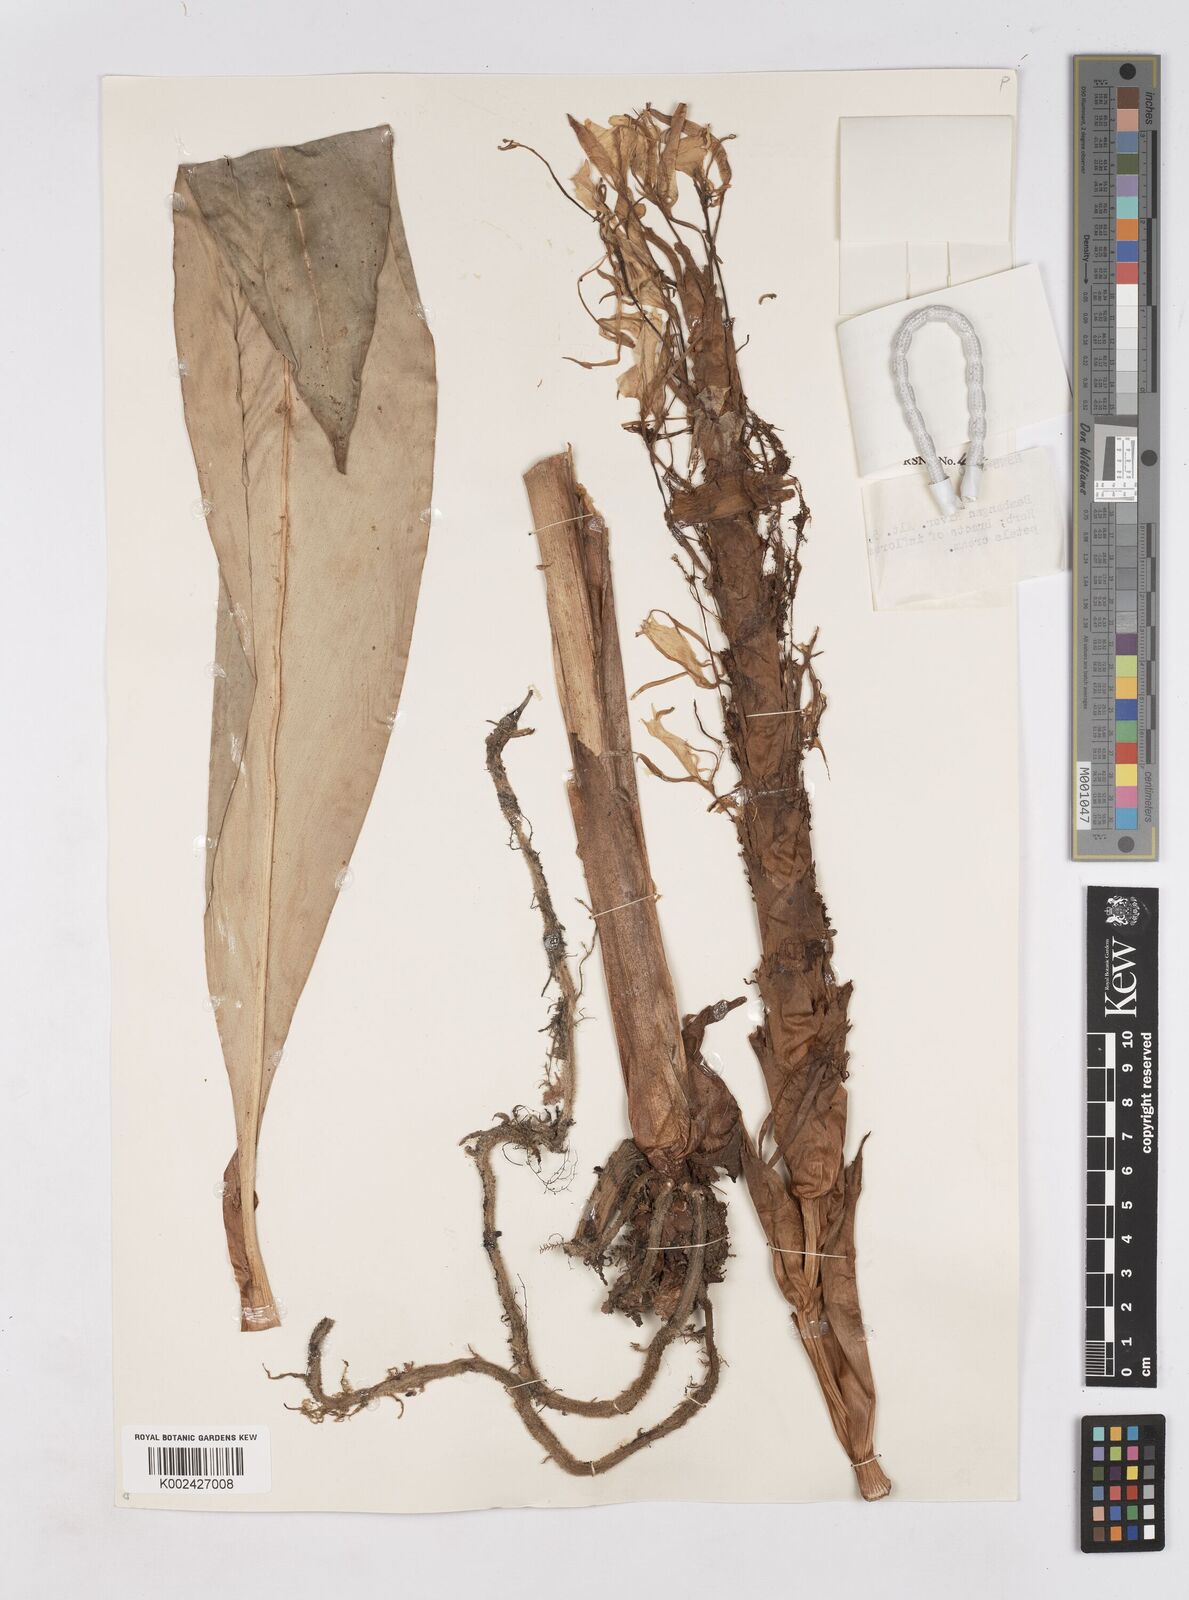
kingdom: Plantae
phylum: Tracheophyta
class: Liliopsida
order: Zingiberales
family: Zingiberaceae
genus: Hedychium
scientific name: Hedychium cylindricum
